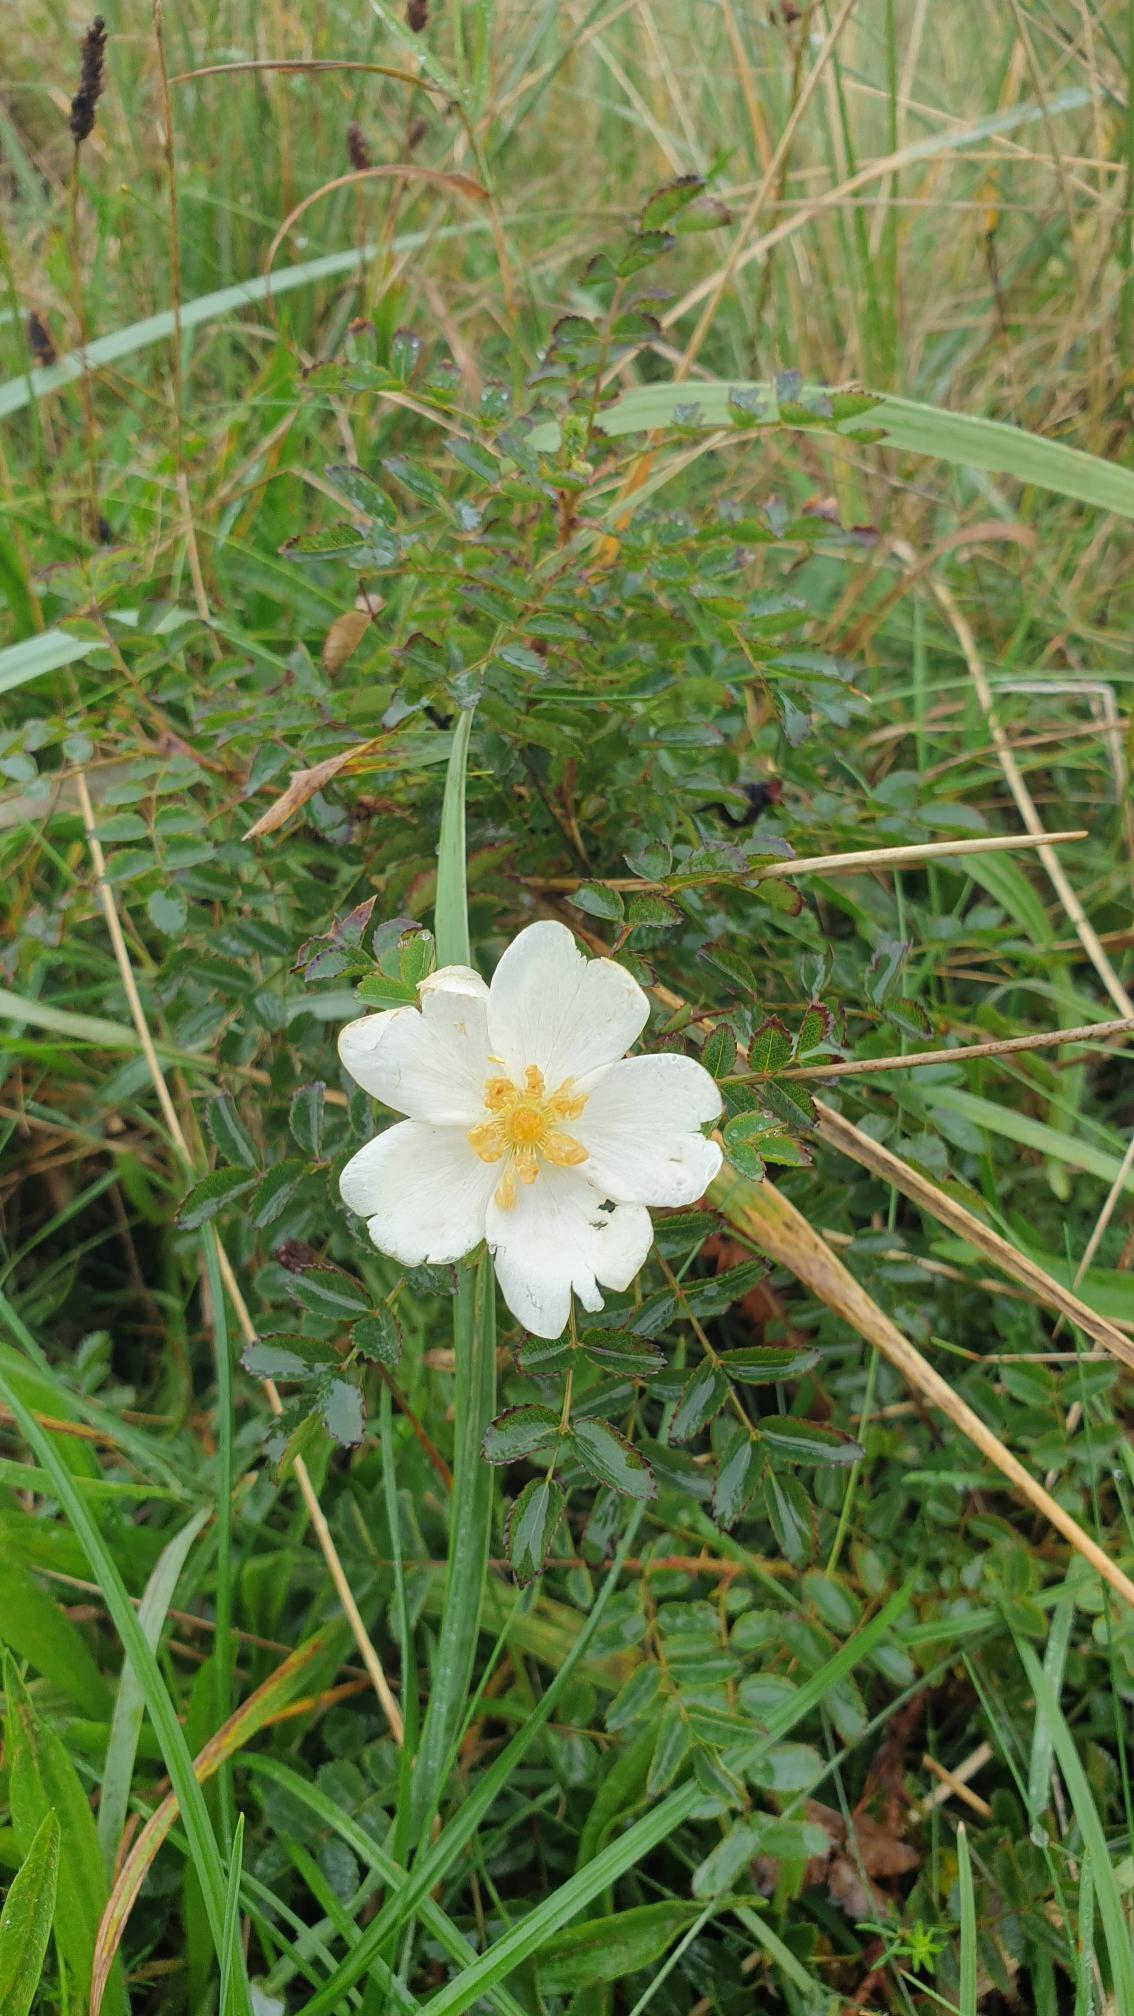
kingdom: Plantae
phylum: Tracheophyta
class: Magnoliopsida
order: Rosales
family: Rosaceae
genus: Rosa
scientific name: Rosa spinosissima
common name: Klit-rose
